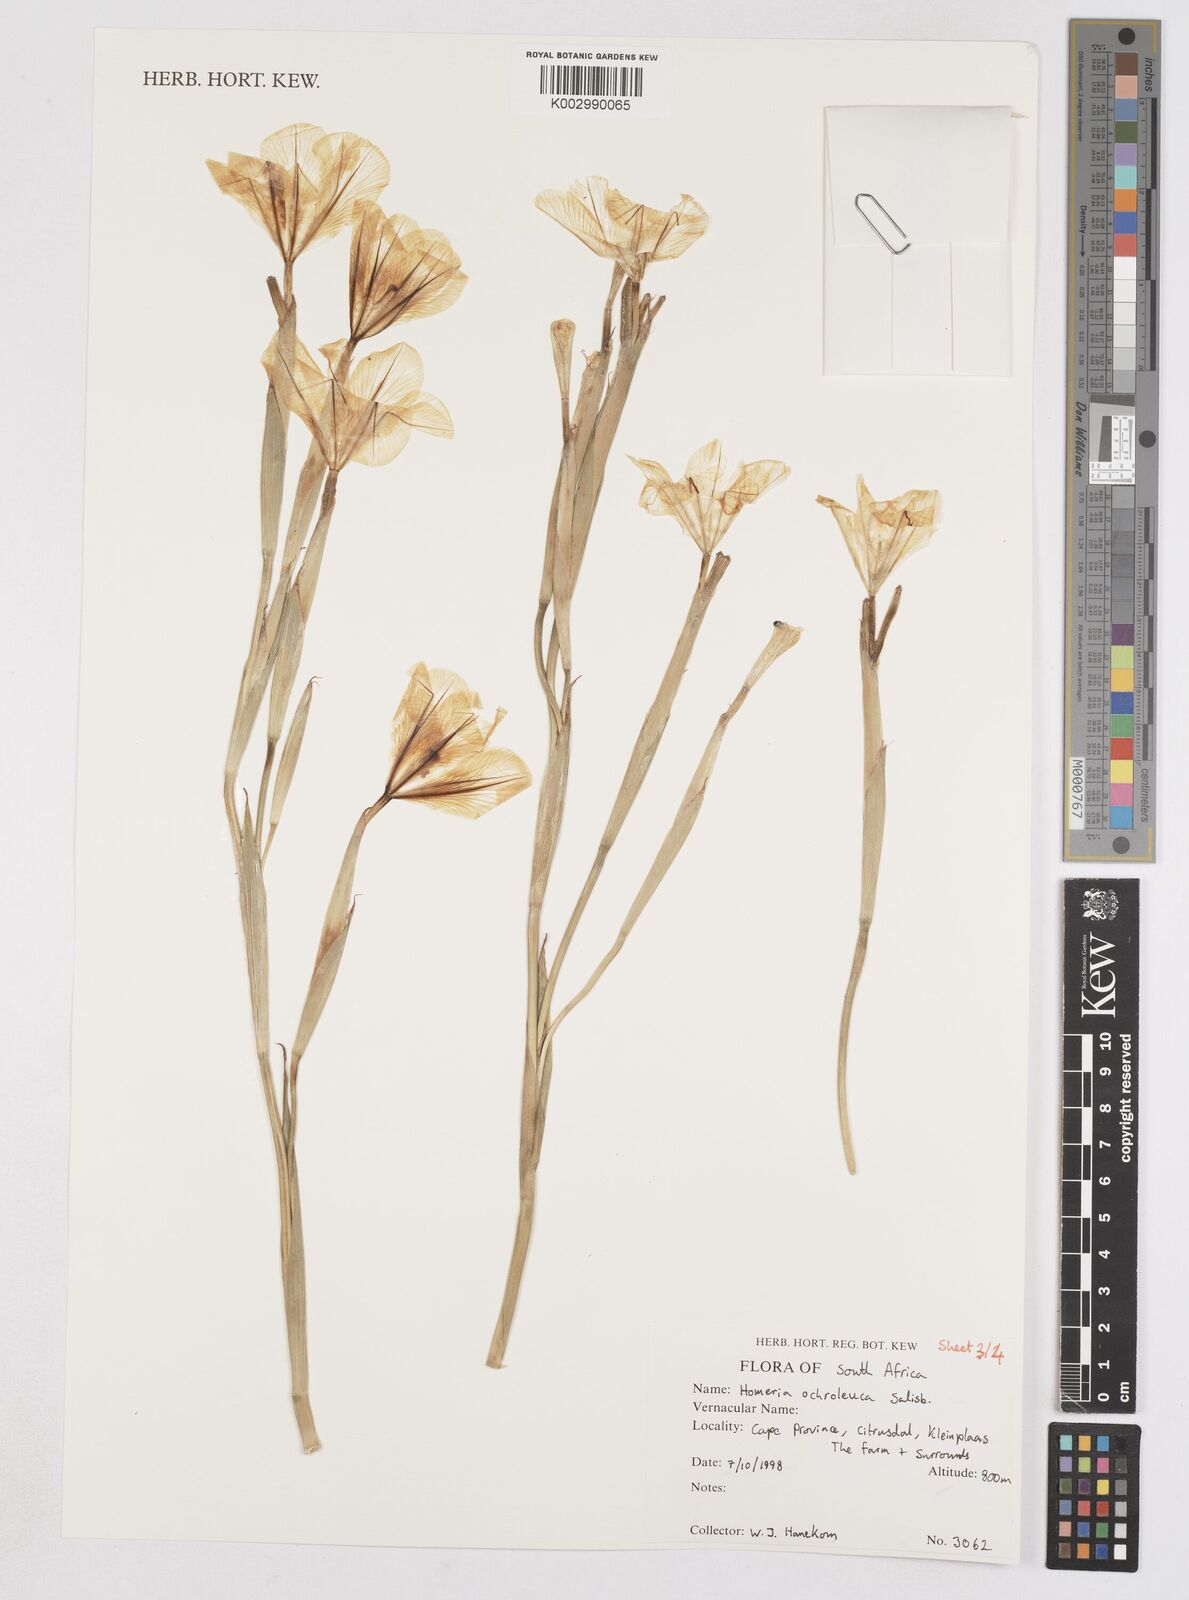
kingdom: Plantae
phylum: Tracheophyta
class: Liliopsida
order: Asparagales
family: Iridaceae
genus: Moraea
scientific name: Moraea ochroleuca
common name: Red tulp
